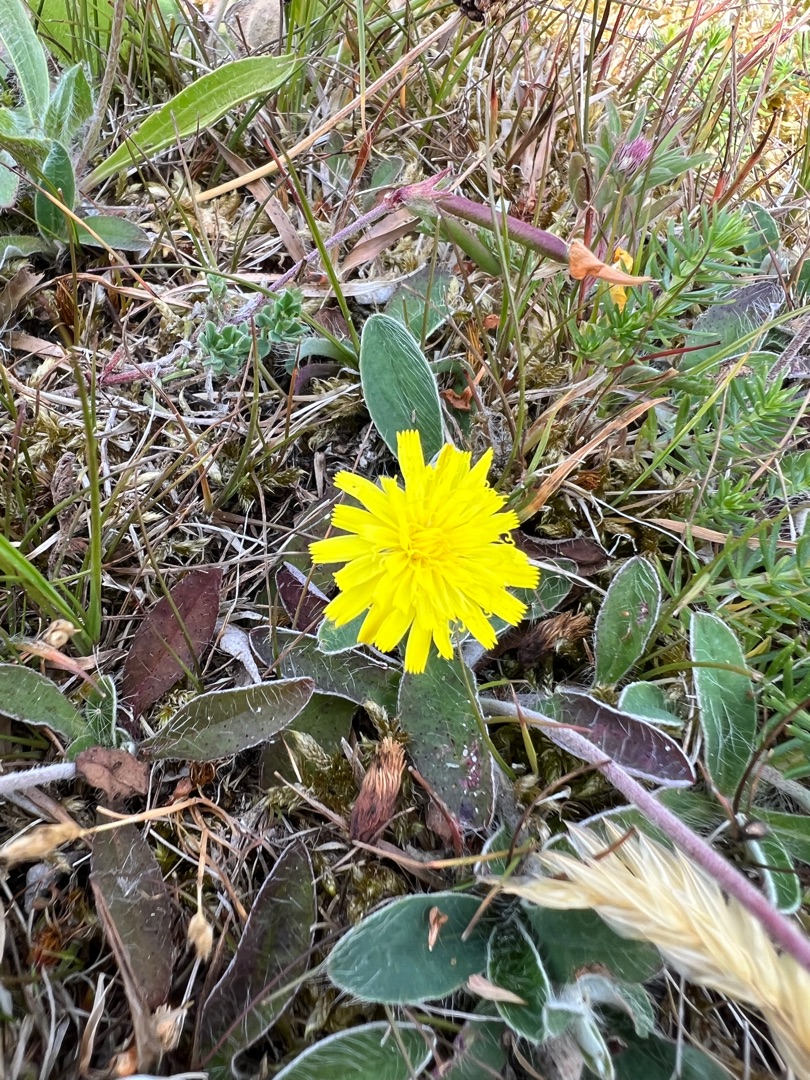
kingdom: Plantae
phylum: Tracheophyta
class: Magnoliopsida
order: Asterales
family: Asteraceae
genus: Pilosella
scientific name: Pilosella officinarum
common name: Håret høgeurt
